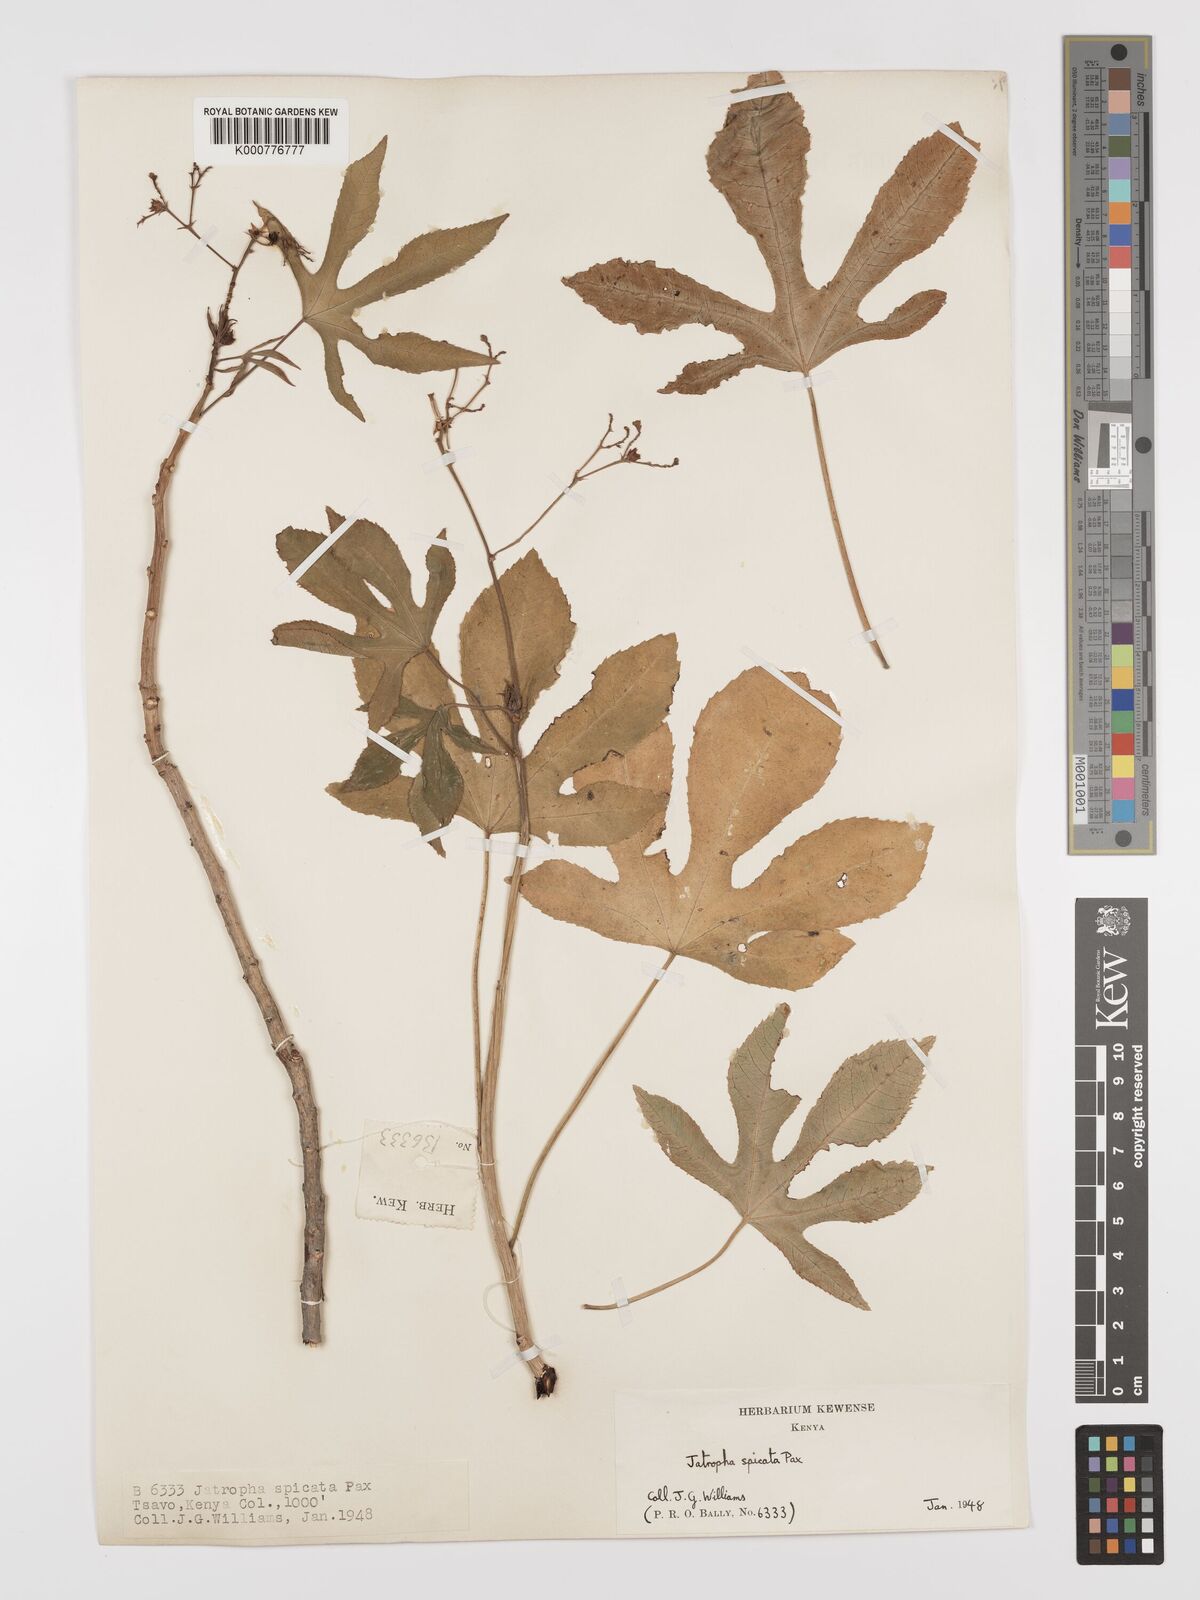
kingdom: Plantae
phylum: Tracheophyta
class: Magnoliopsida
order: Malpighiales
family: Euphorbiaceae
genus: Jatropha
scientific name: Jatropha spicata
